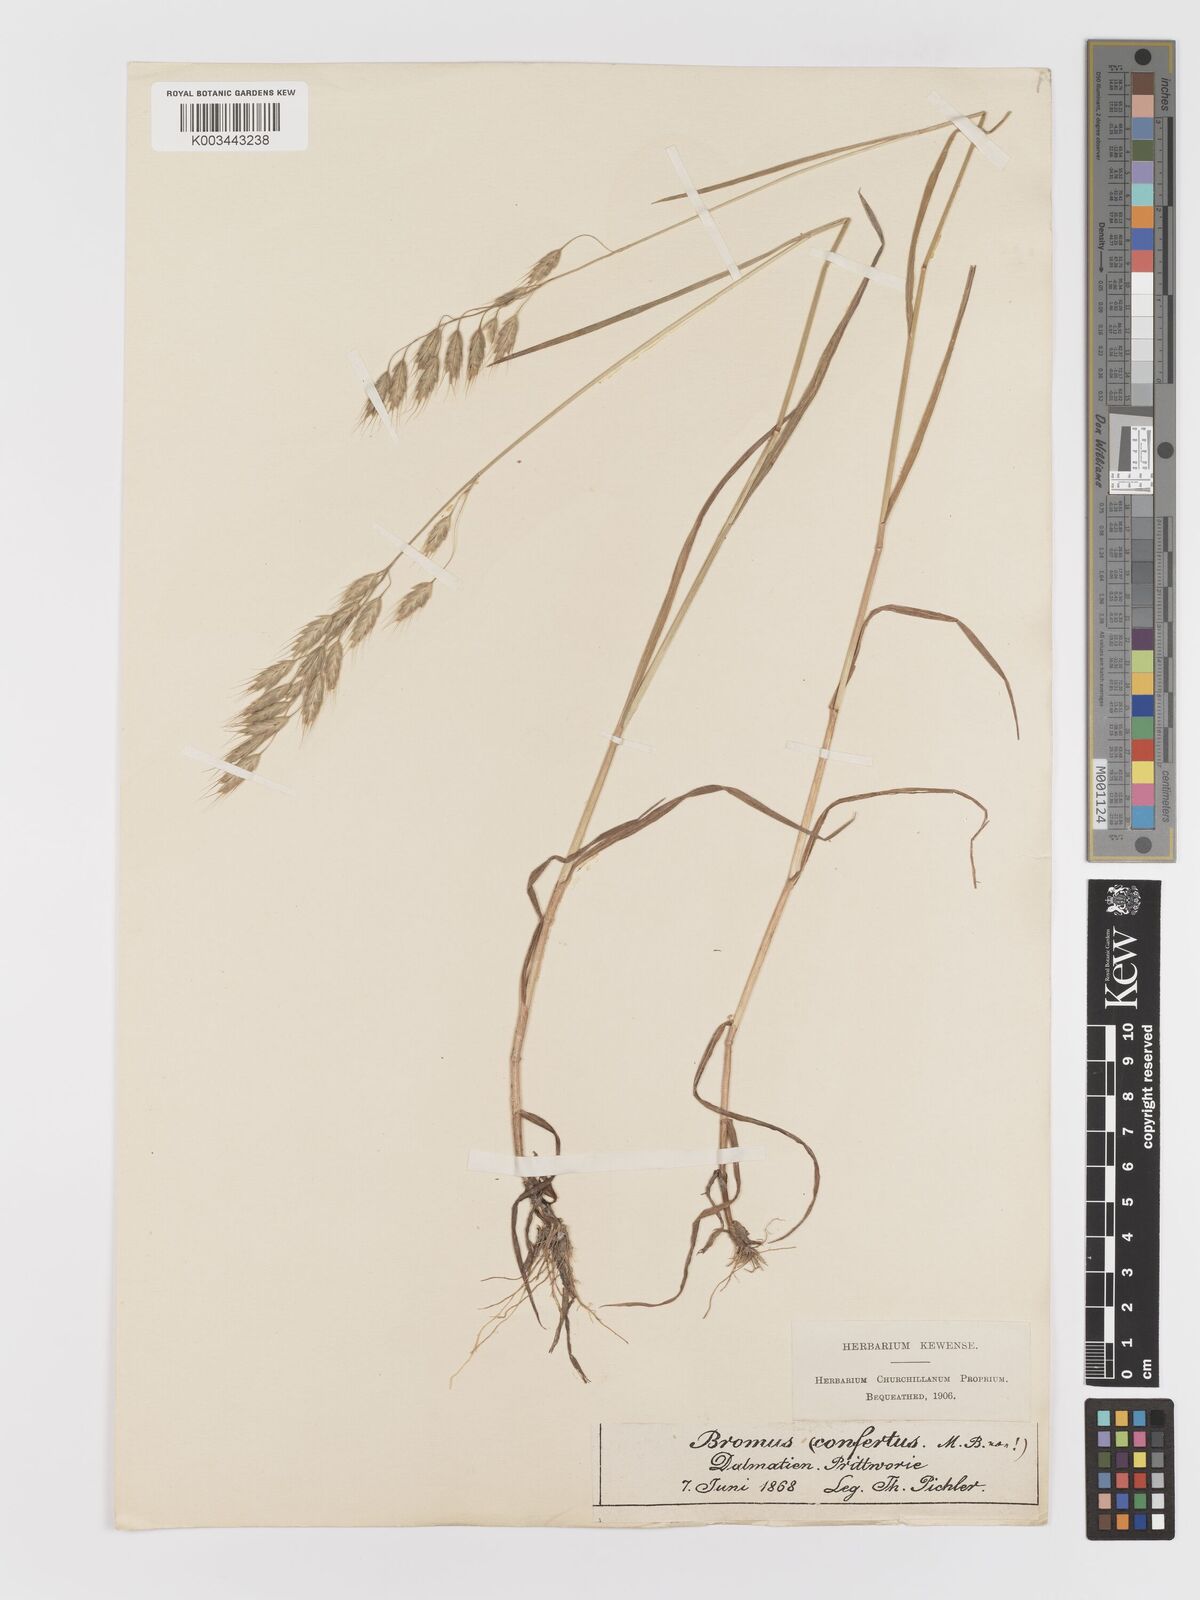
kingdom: Plantae
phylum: Tracheophyta
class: Liliopsida
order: Poales
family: Poaceae
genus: Bromus
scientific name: Bromus
